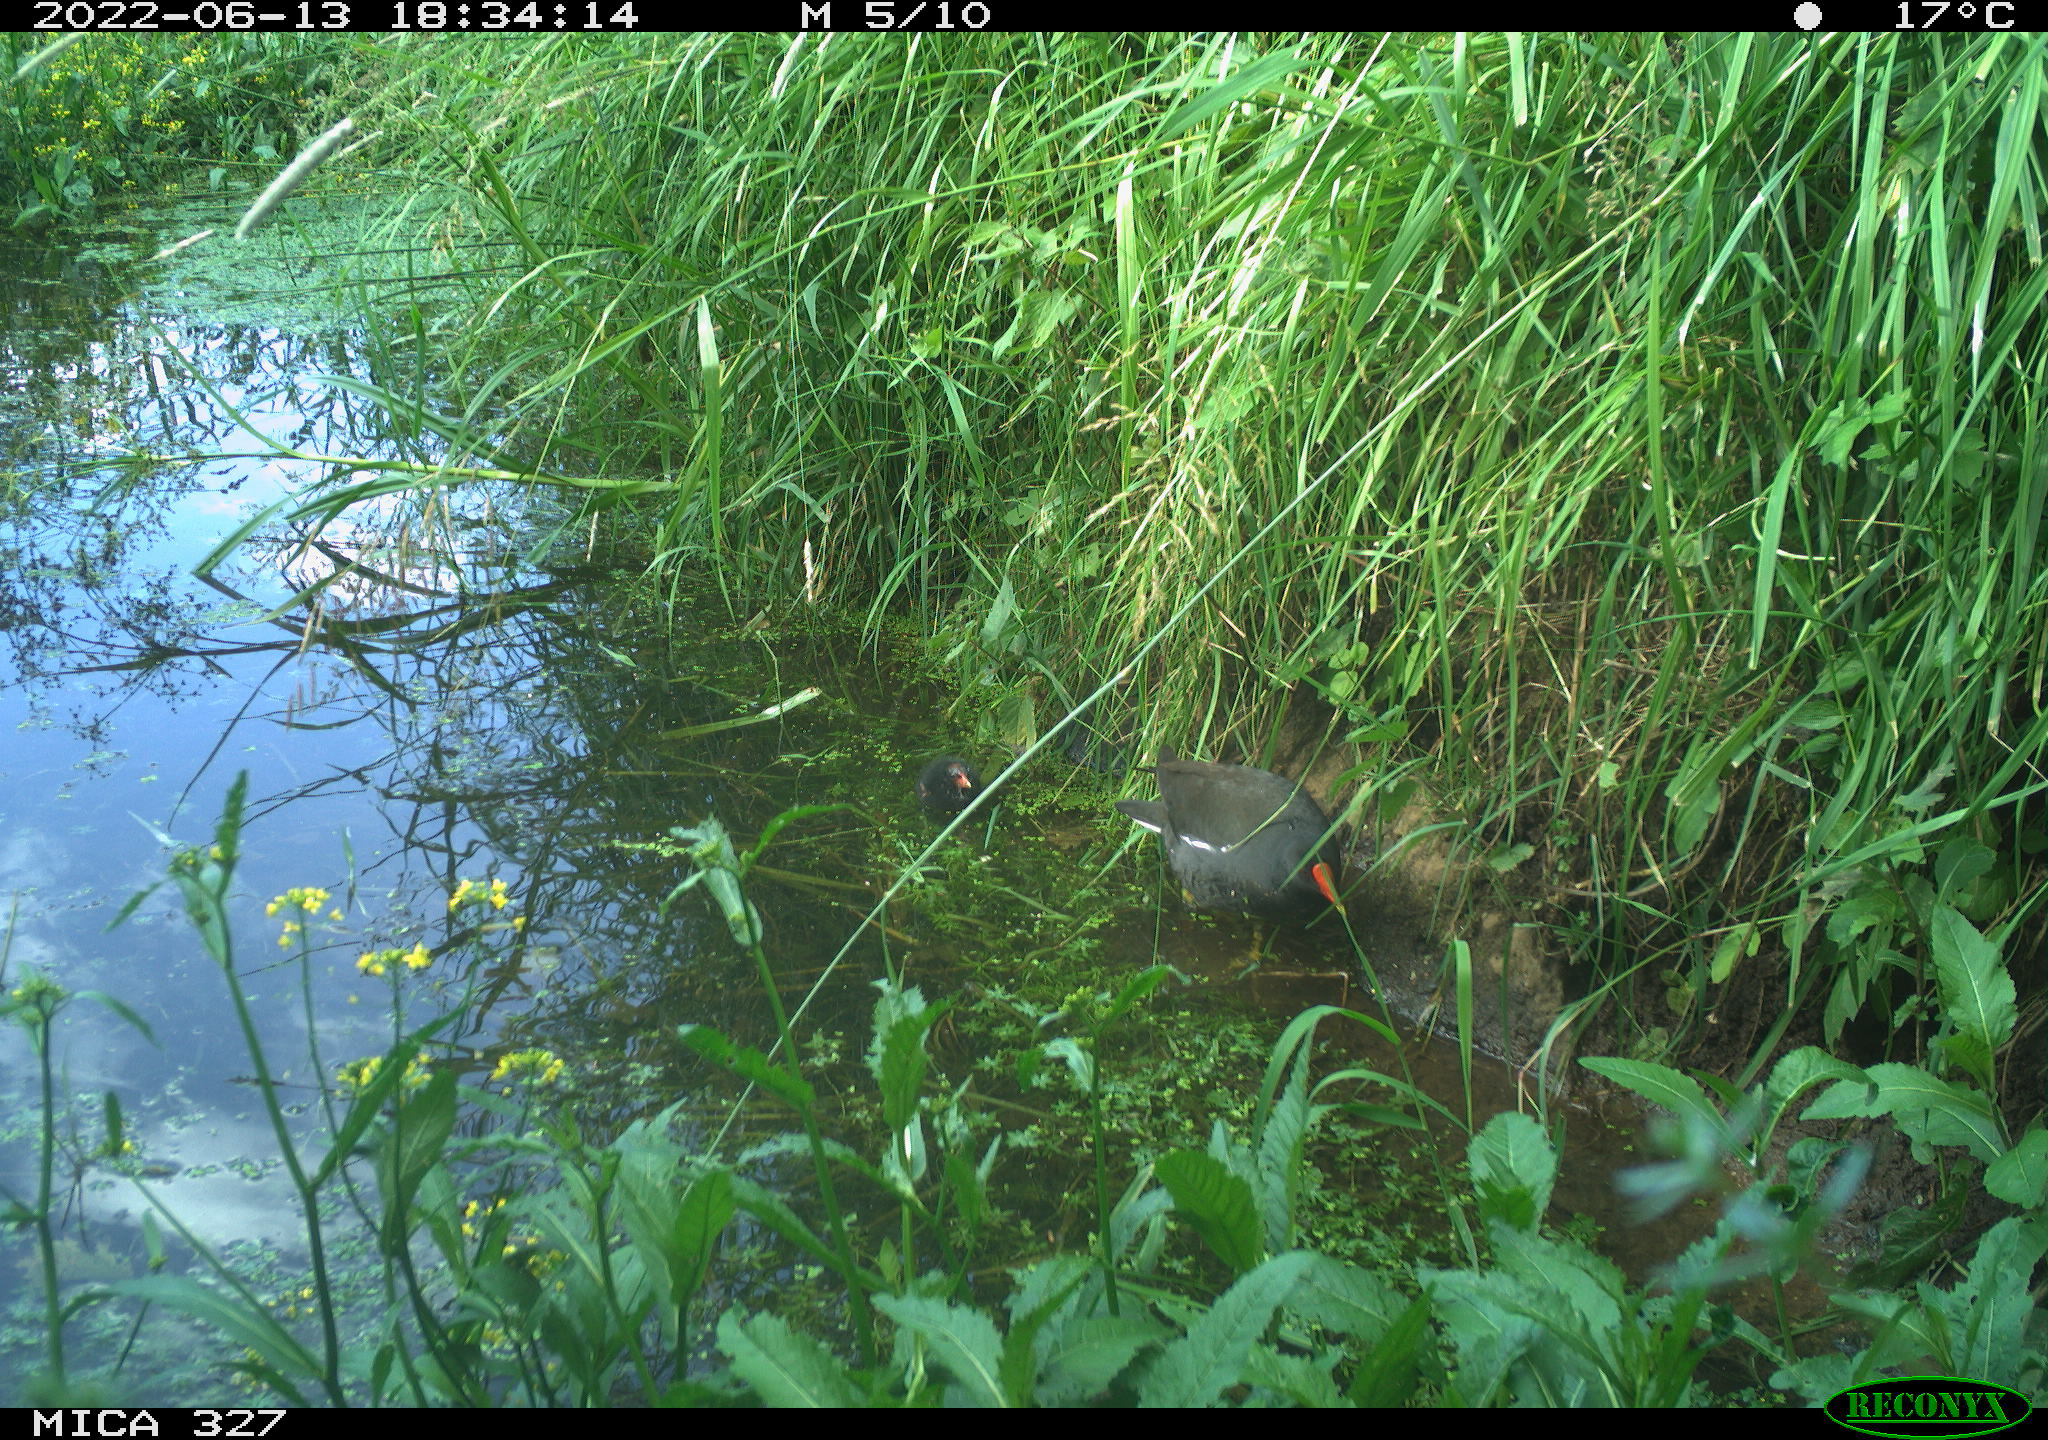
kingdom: Animalia
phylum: Chordata
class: Aves
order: Gruiformes
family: Rallidae
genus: Gallinula
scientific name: Gallinula chloropus
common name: Common moorhen
